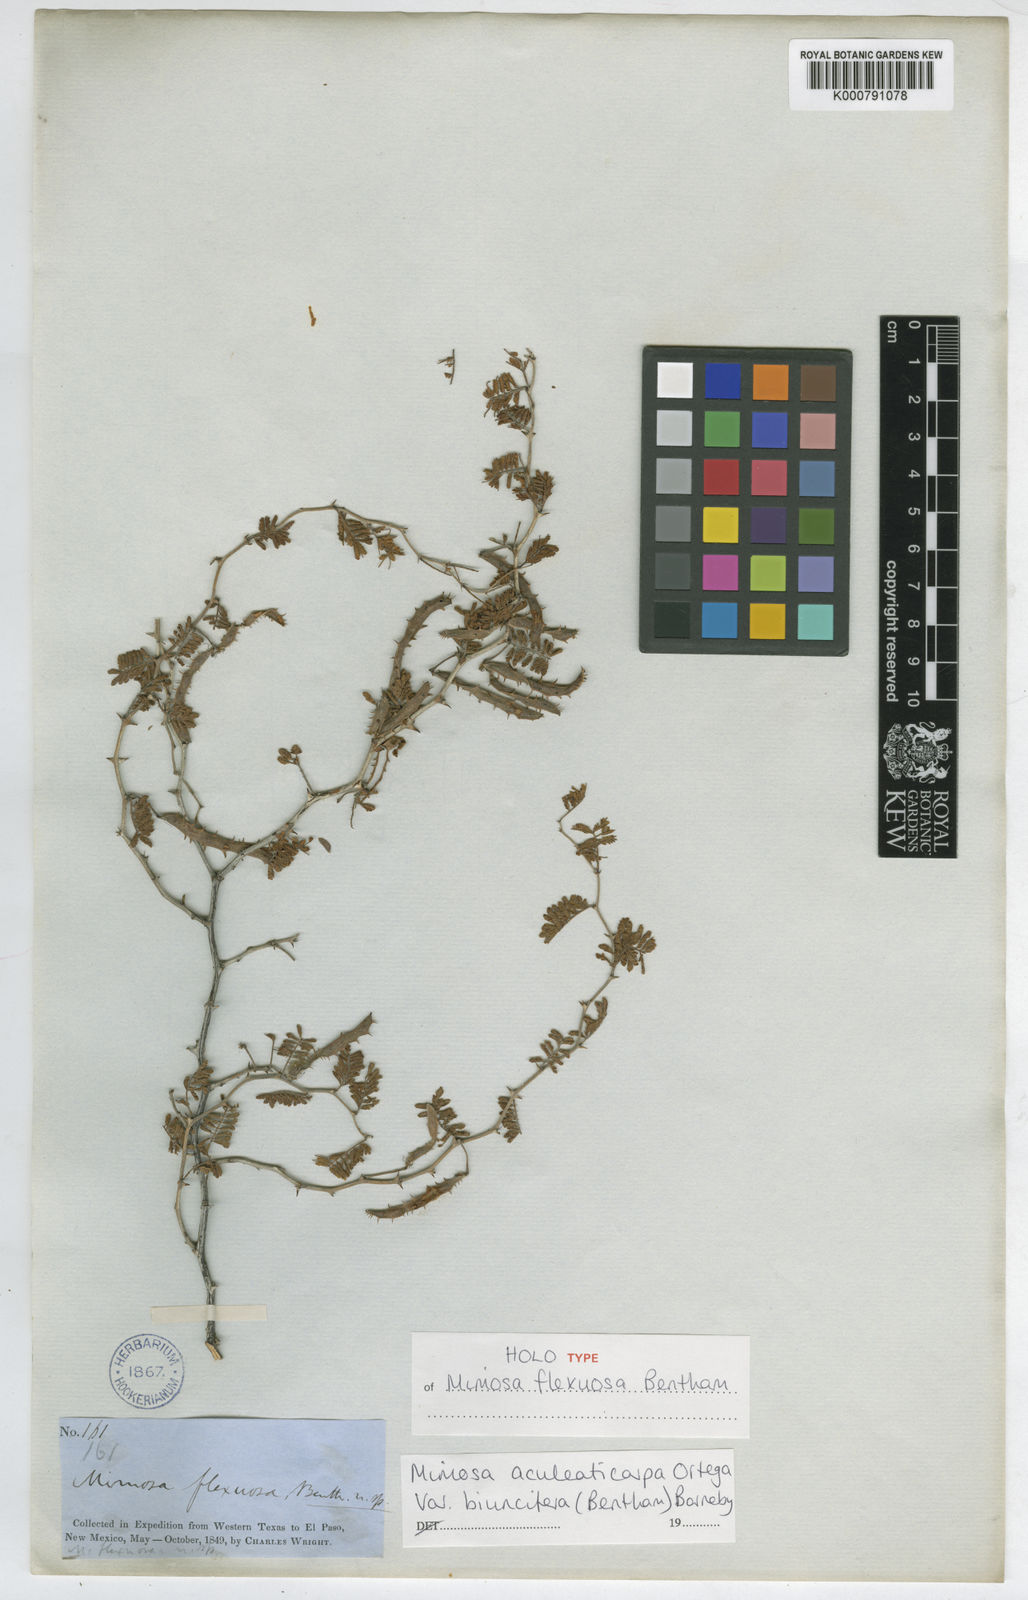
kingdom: Plantae
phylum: Tracheophyta
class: Magnoliopsida
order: Fabales
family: Fabaceae
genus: Mimosa
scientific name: Mimosa biuncifera
